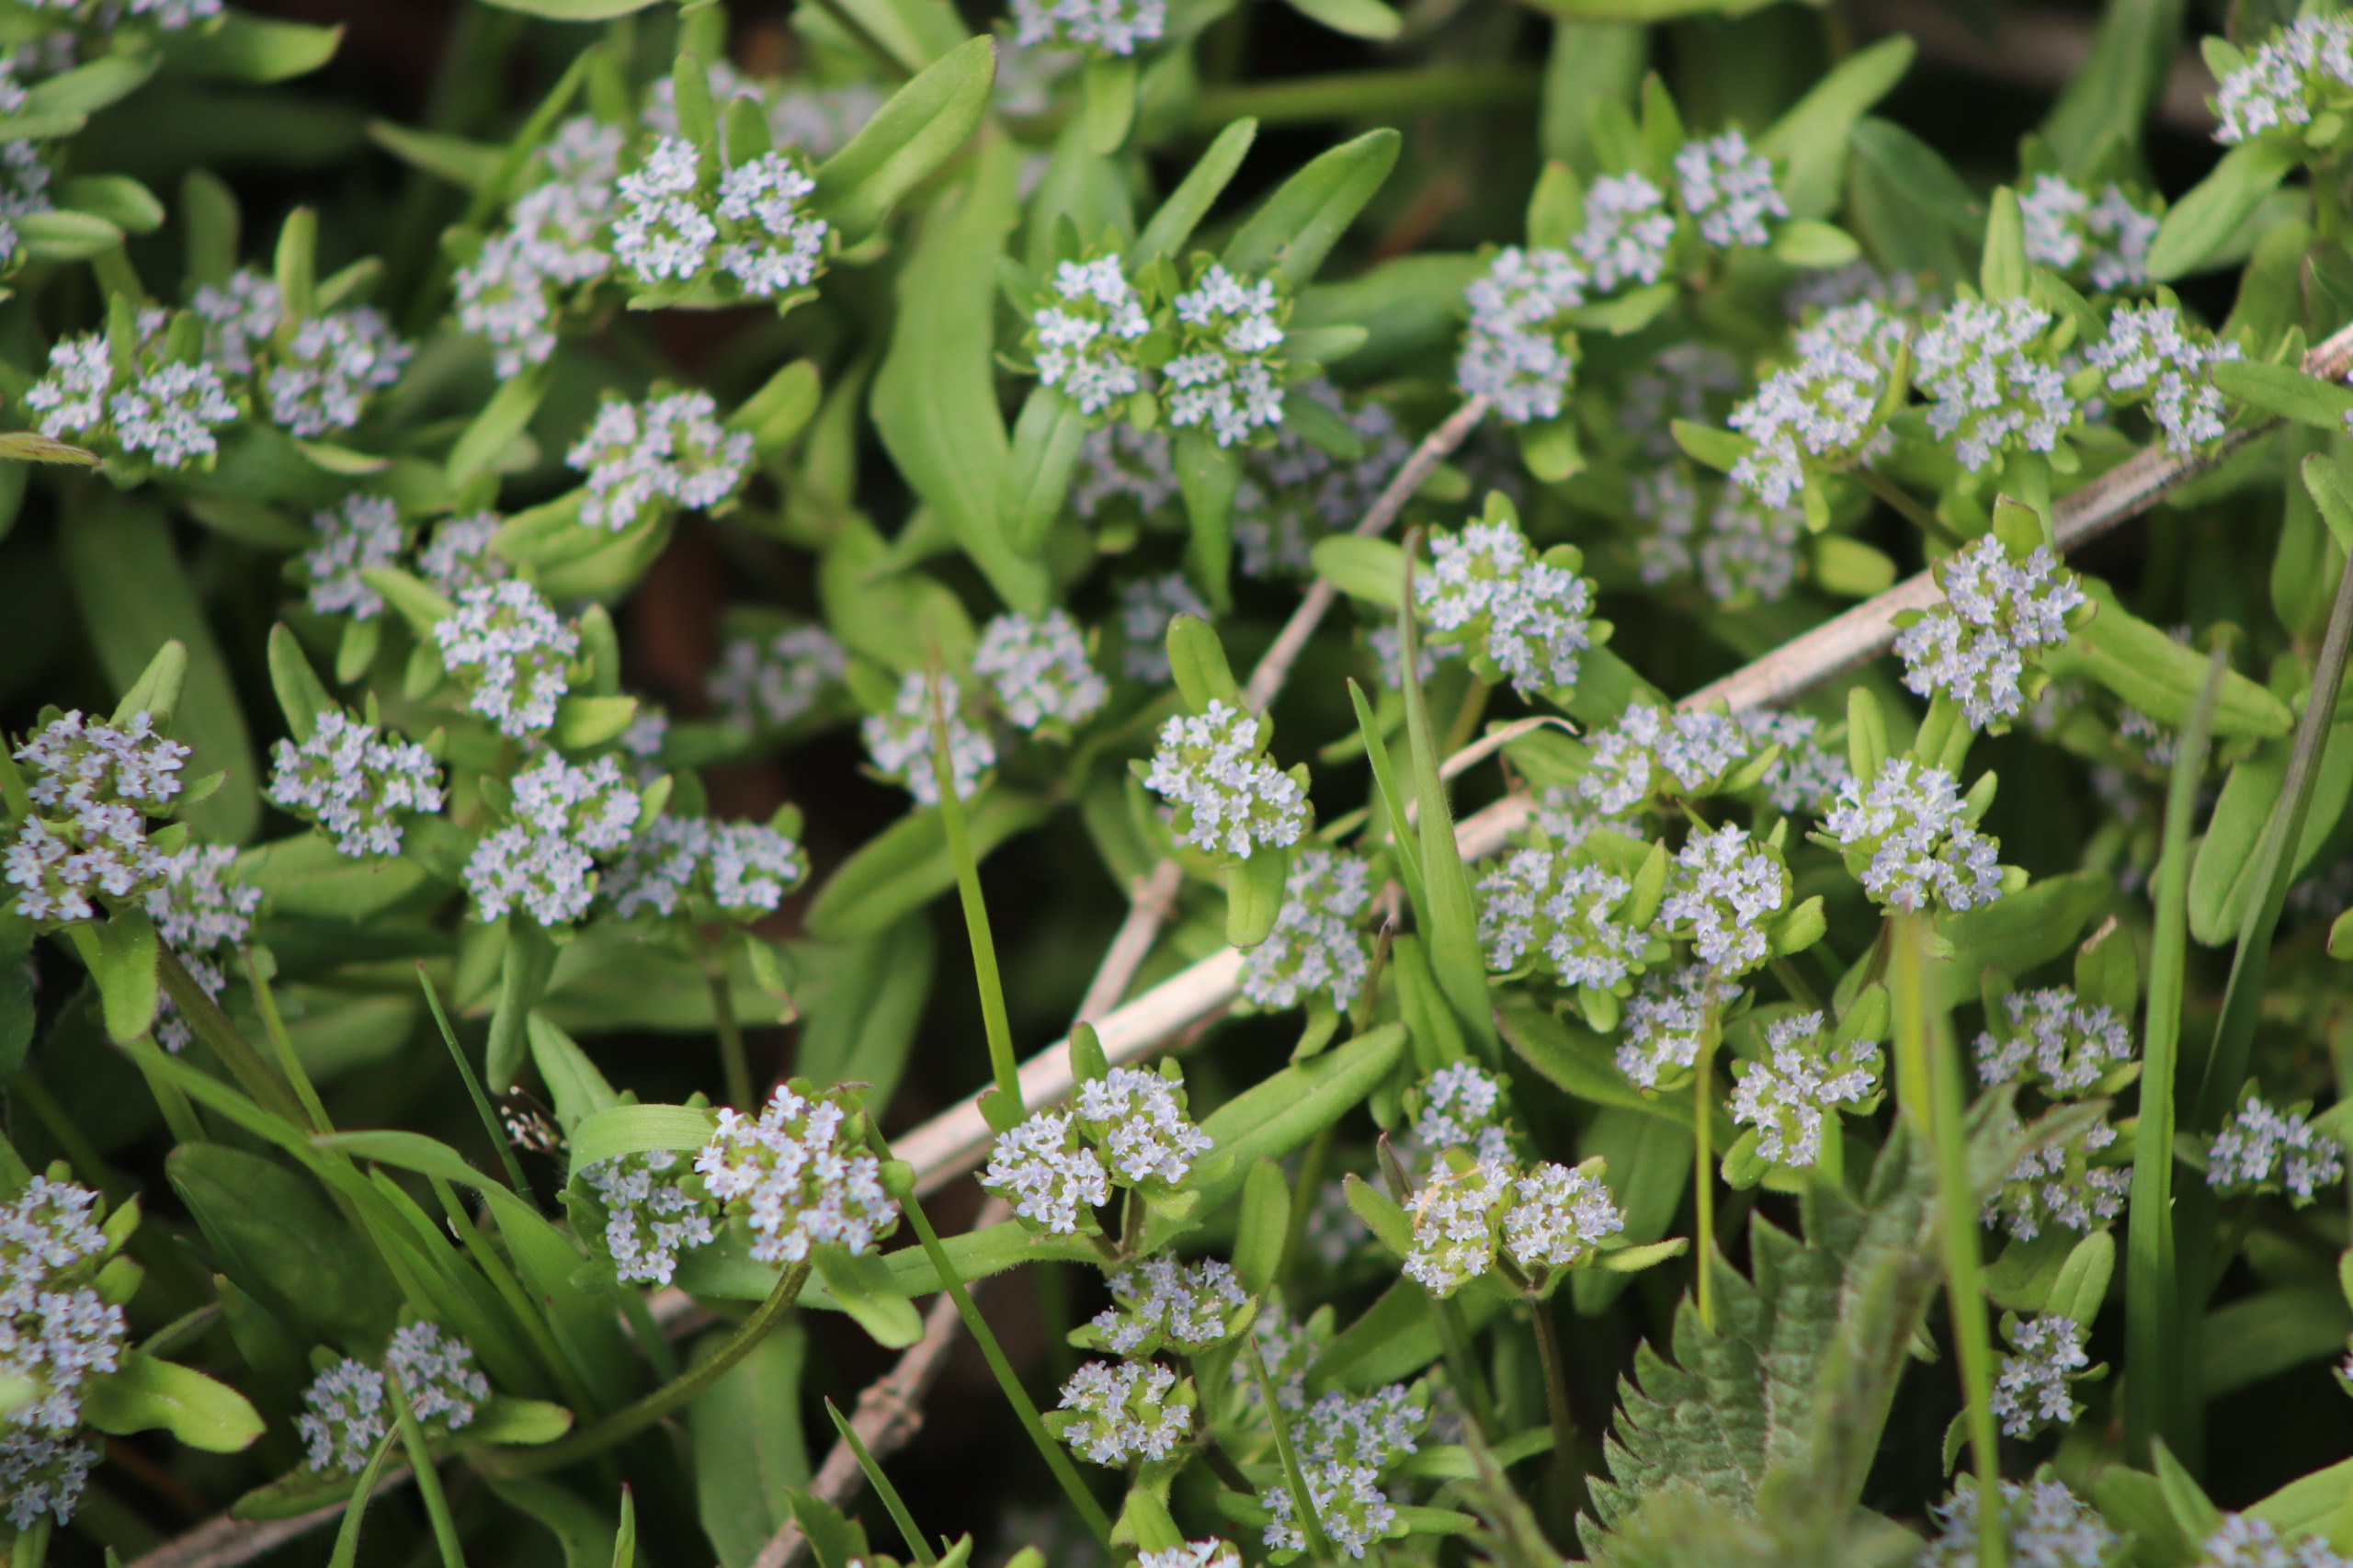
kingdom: Plantae
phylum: Tracheophyta
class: Magnoliopsida
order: Dipsacales
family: Caprifoliaceae
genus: Valerianella
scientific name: Valerianella locusta
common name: Tandfri vårsalat
